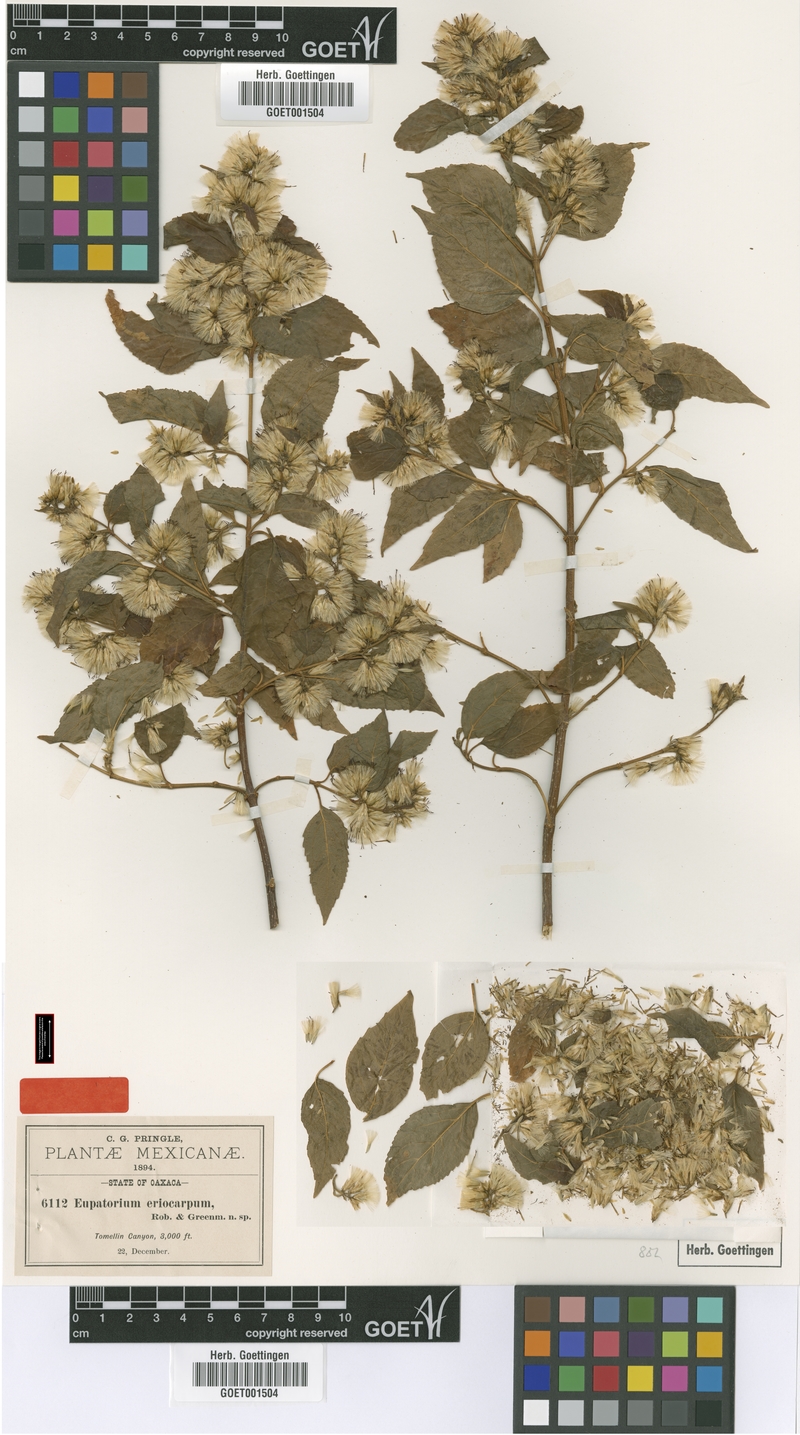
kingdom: Plantae
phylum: Tracheophyta
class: Magnoliopsida
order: Asterales
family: Asteraceae
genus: Kyrsteniopsis
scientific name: Kyrsteniopsis dibolii
